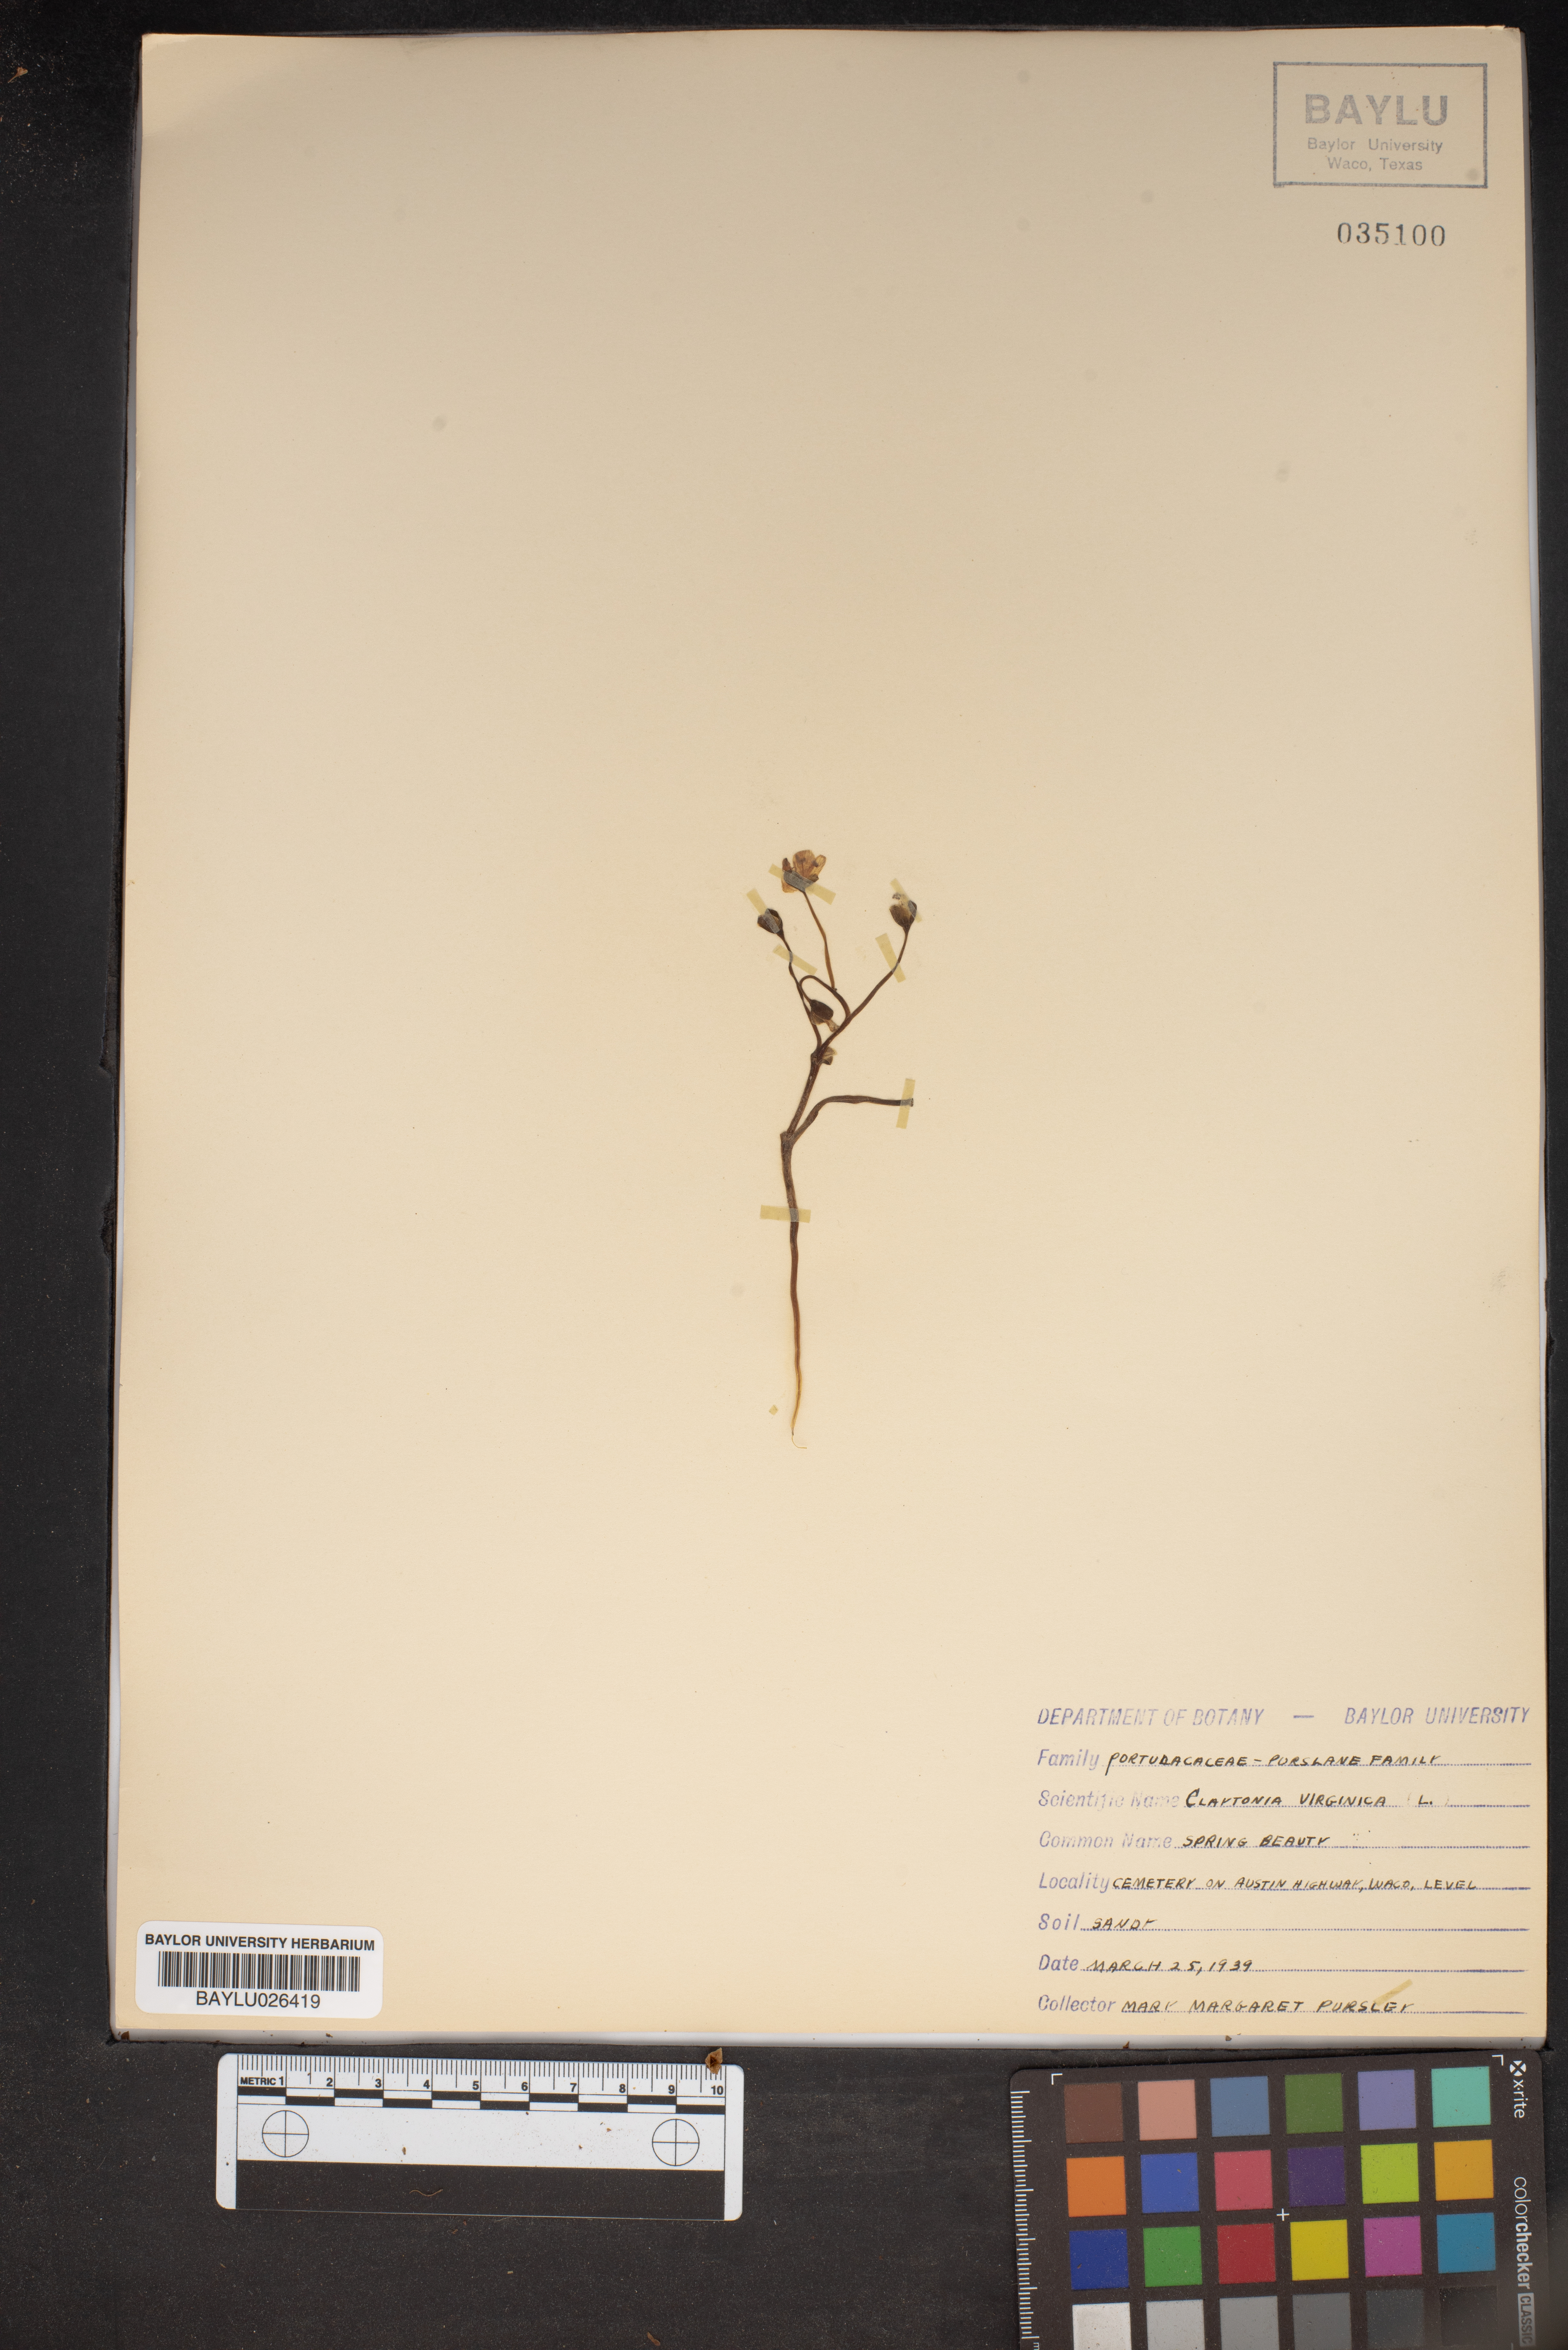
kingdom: Plantae
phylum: Tracheophyta
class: Magnoliopsida
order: Caryophyllales
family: Montiaceae
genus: Claytonia
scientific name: Claytonia virginica
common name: Virginia springbeauty
